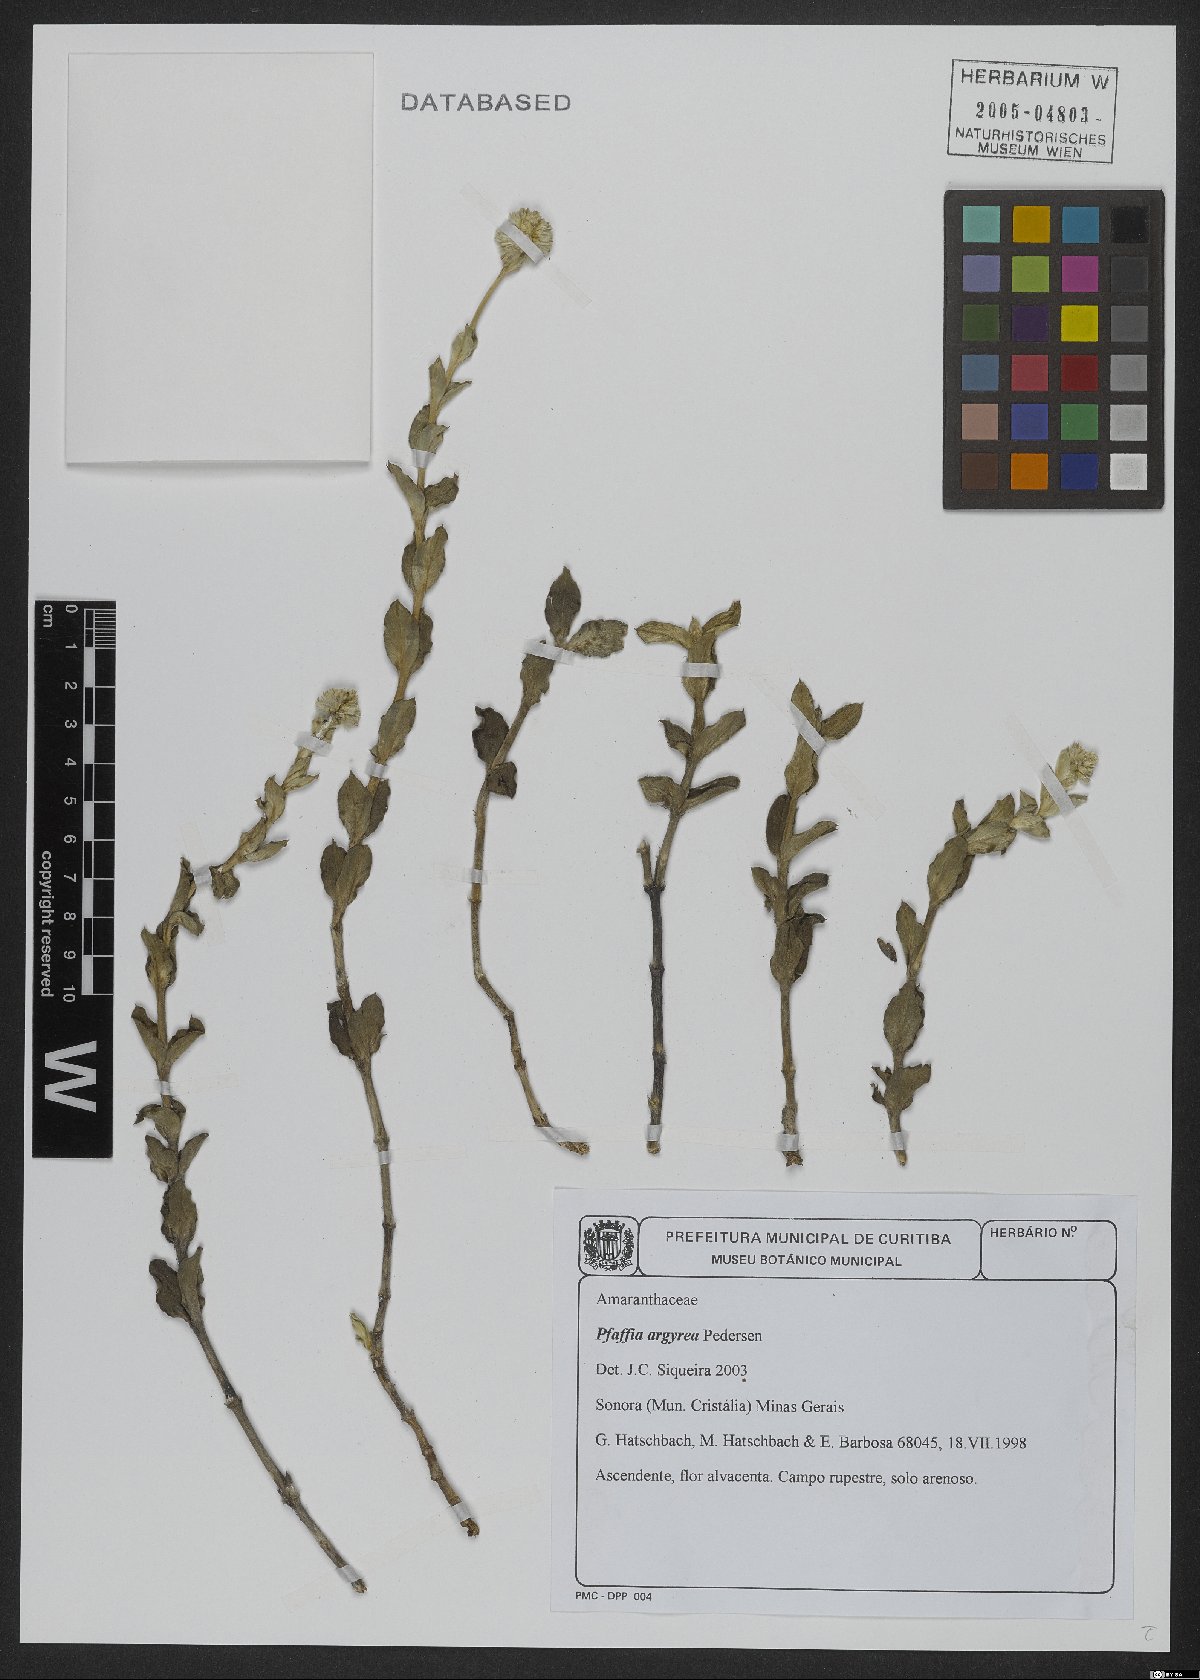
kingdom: Plantae
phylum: Tracheophyta
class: Magnoliopsida
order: Caryophyllales
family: Amaranthaceae
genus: Pfaffia
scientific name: Pfaffia argyrea
